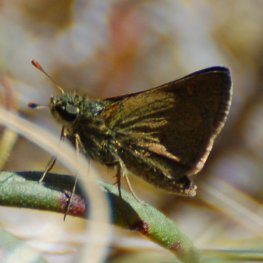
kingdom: Animalia
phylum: Arthropoda
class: Insecta
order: Lepidoptera
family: Hesperiidae
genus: Polites
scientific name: Polites themistocles
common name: Tawny-edged Skipper
